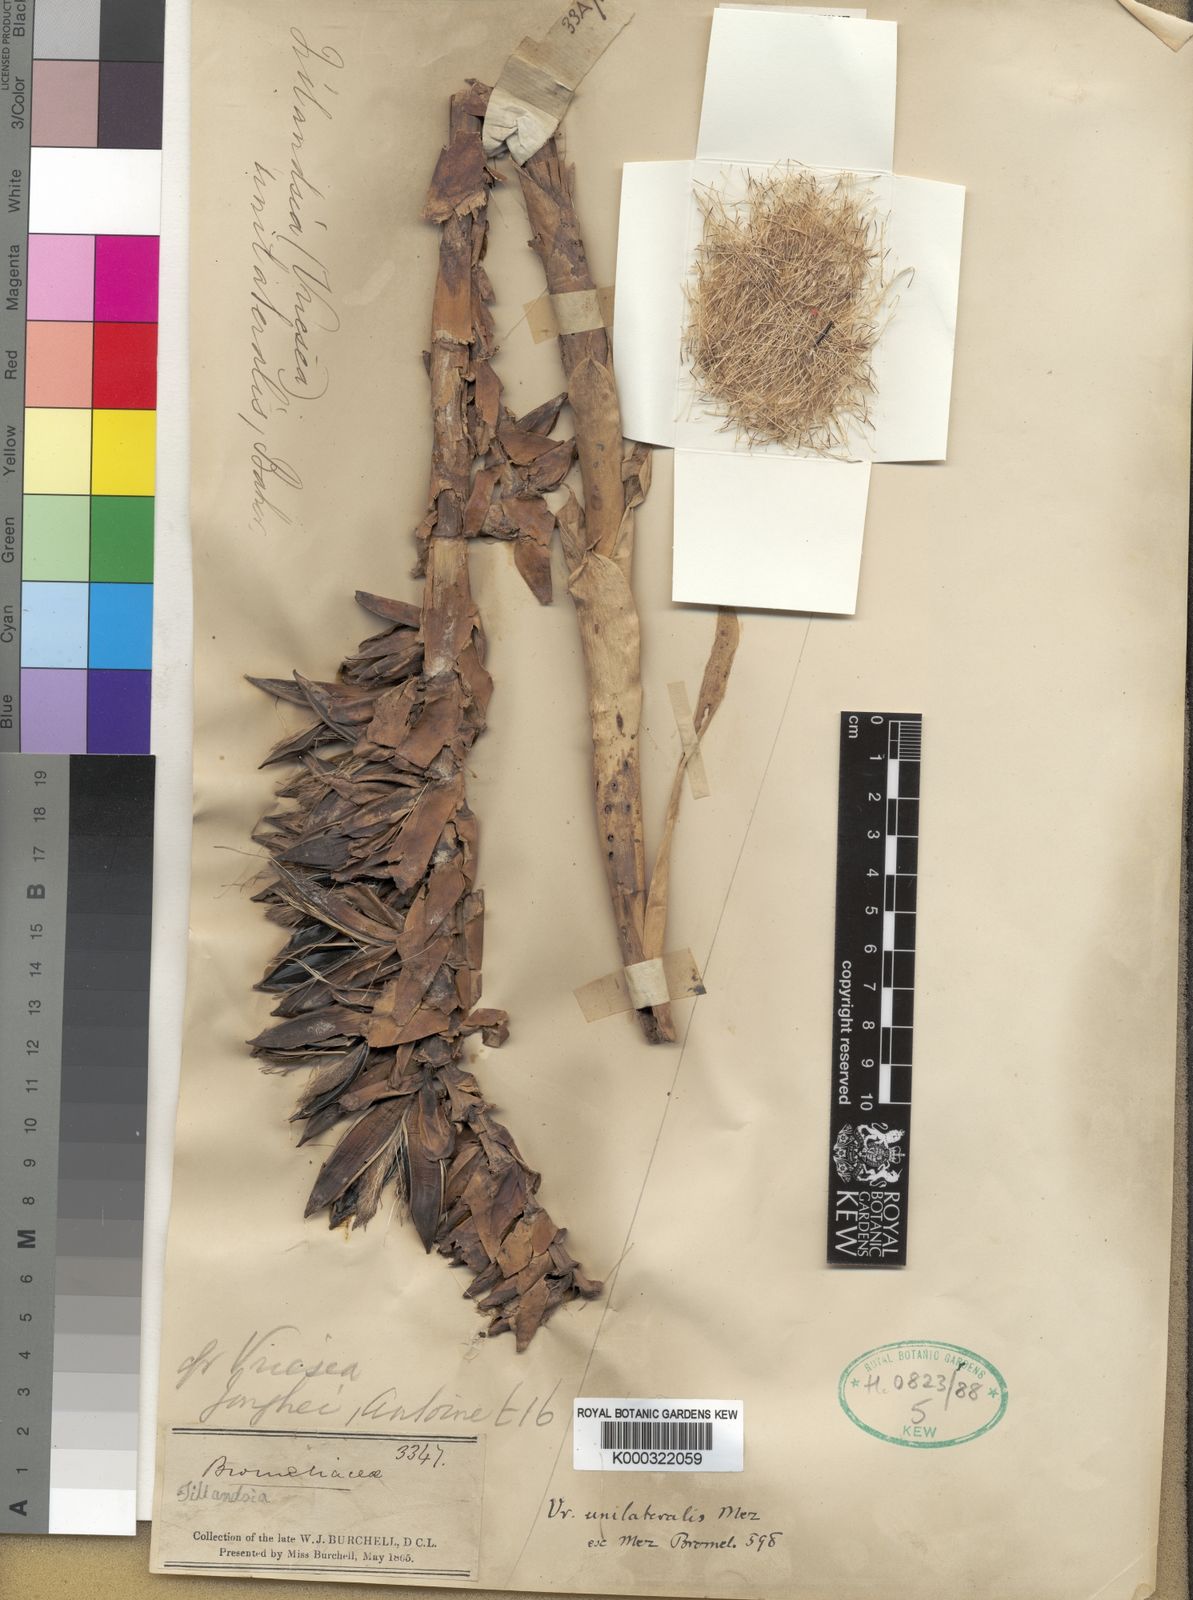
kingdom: Plantae
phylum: Tracheophyta
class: Liliopsida
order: Poales
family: Bromeliaceae
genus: Vriesea
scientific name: Vriesea unilateralis
